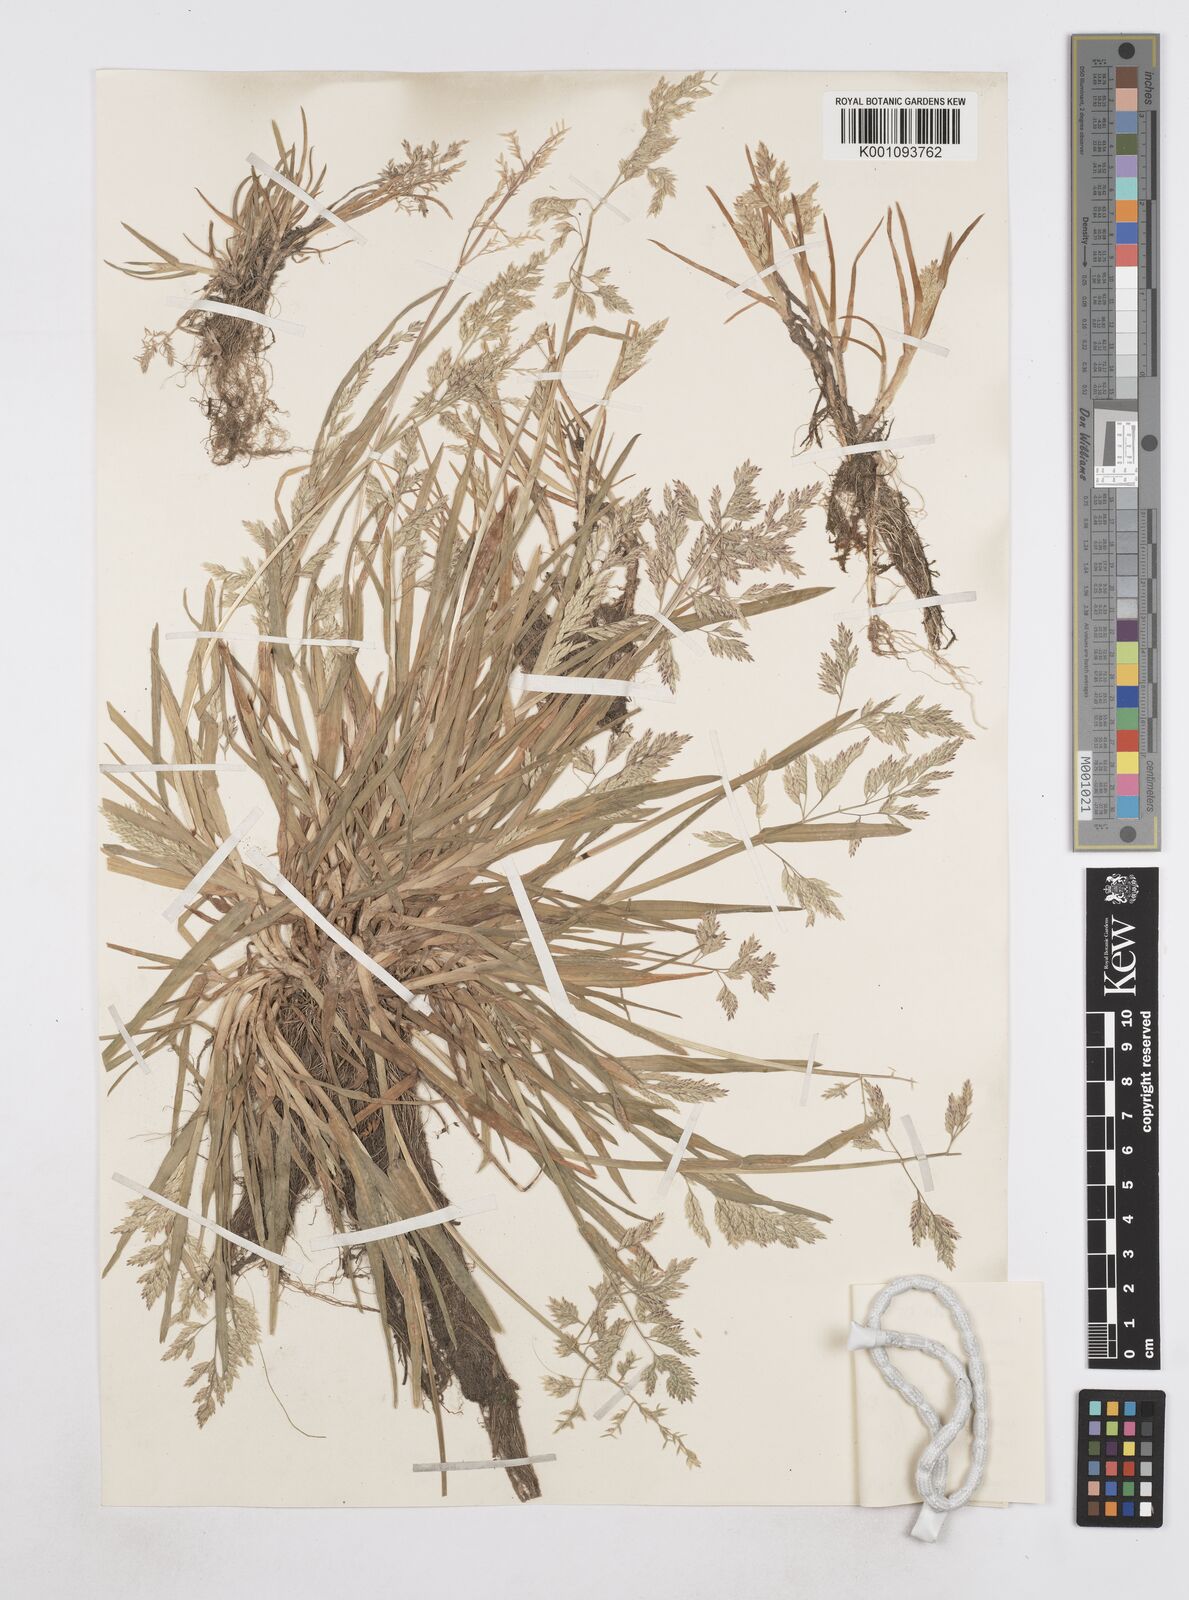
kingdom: Plantae
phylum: Tracheophyta
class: Liliopsida
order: Poales
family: Poaceae
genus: Poa
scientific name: Poa annua
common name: Annual bluegrass
